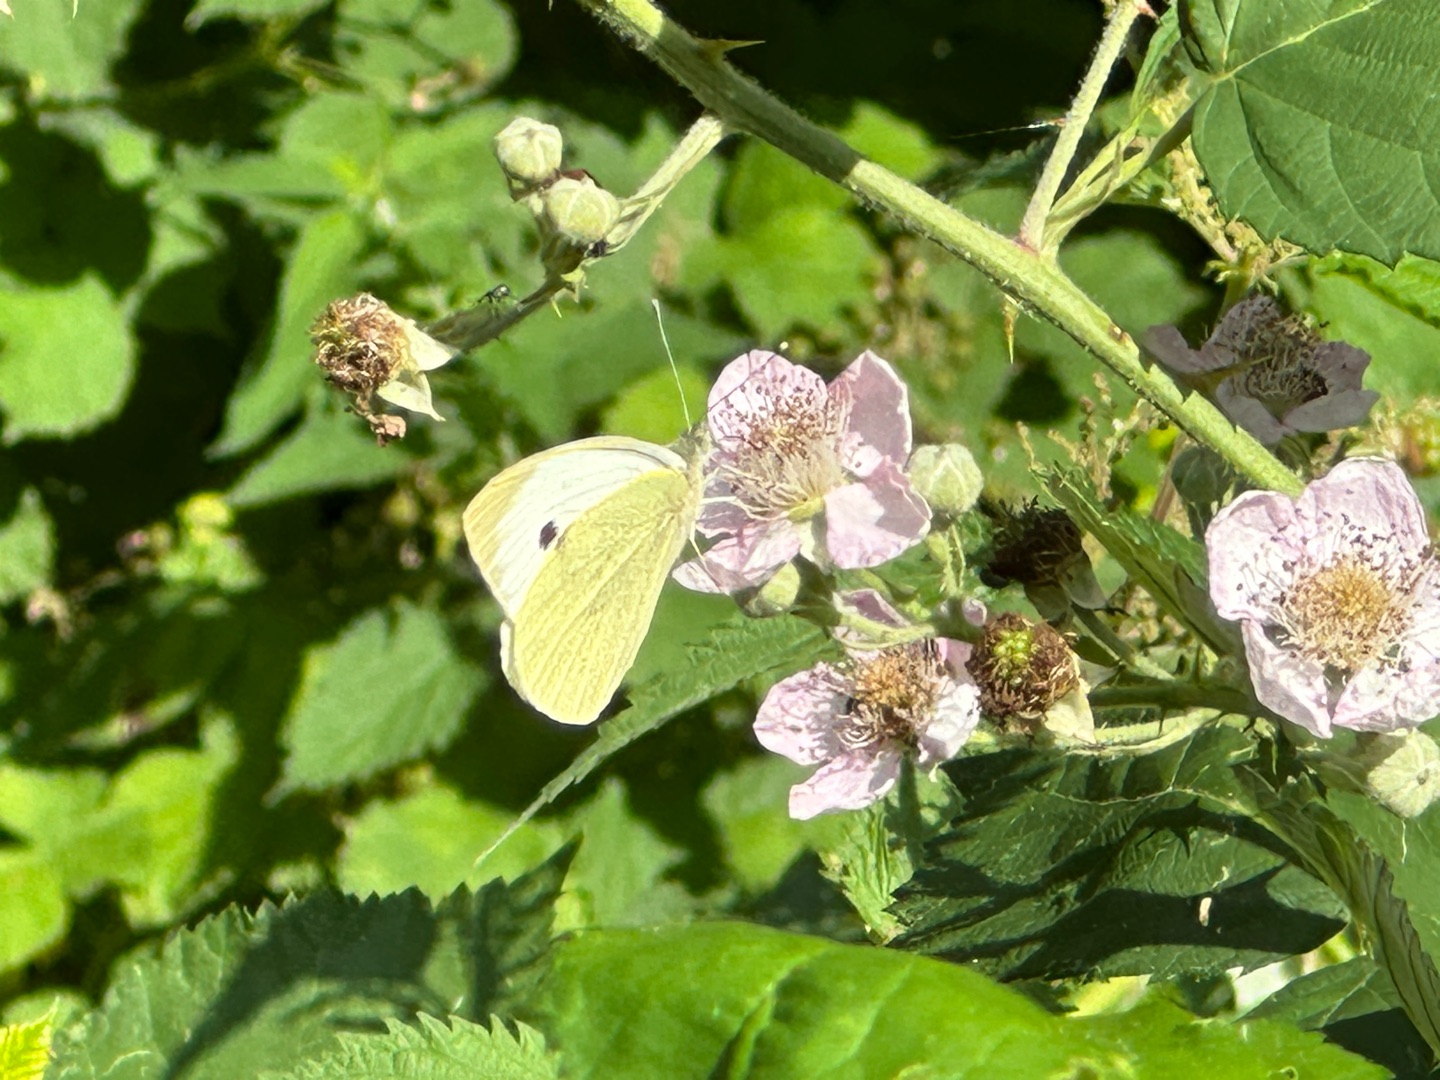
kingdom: Animalia
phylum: Arthropoda
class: Insecta
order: Lepidoptera
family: Pieridae
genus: Pieris
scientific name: Pieris brassicae
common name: Stor kålsommerfugl
